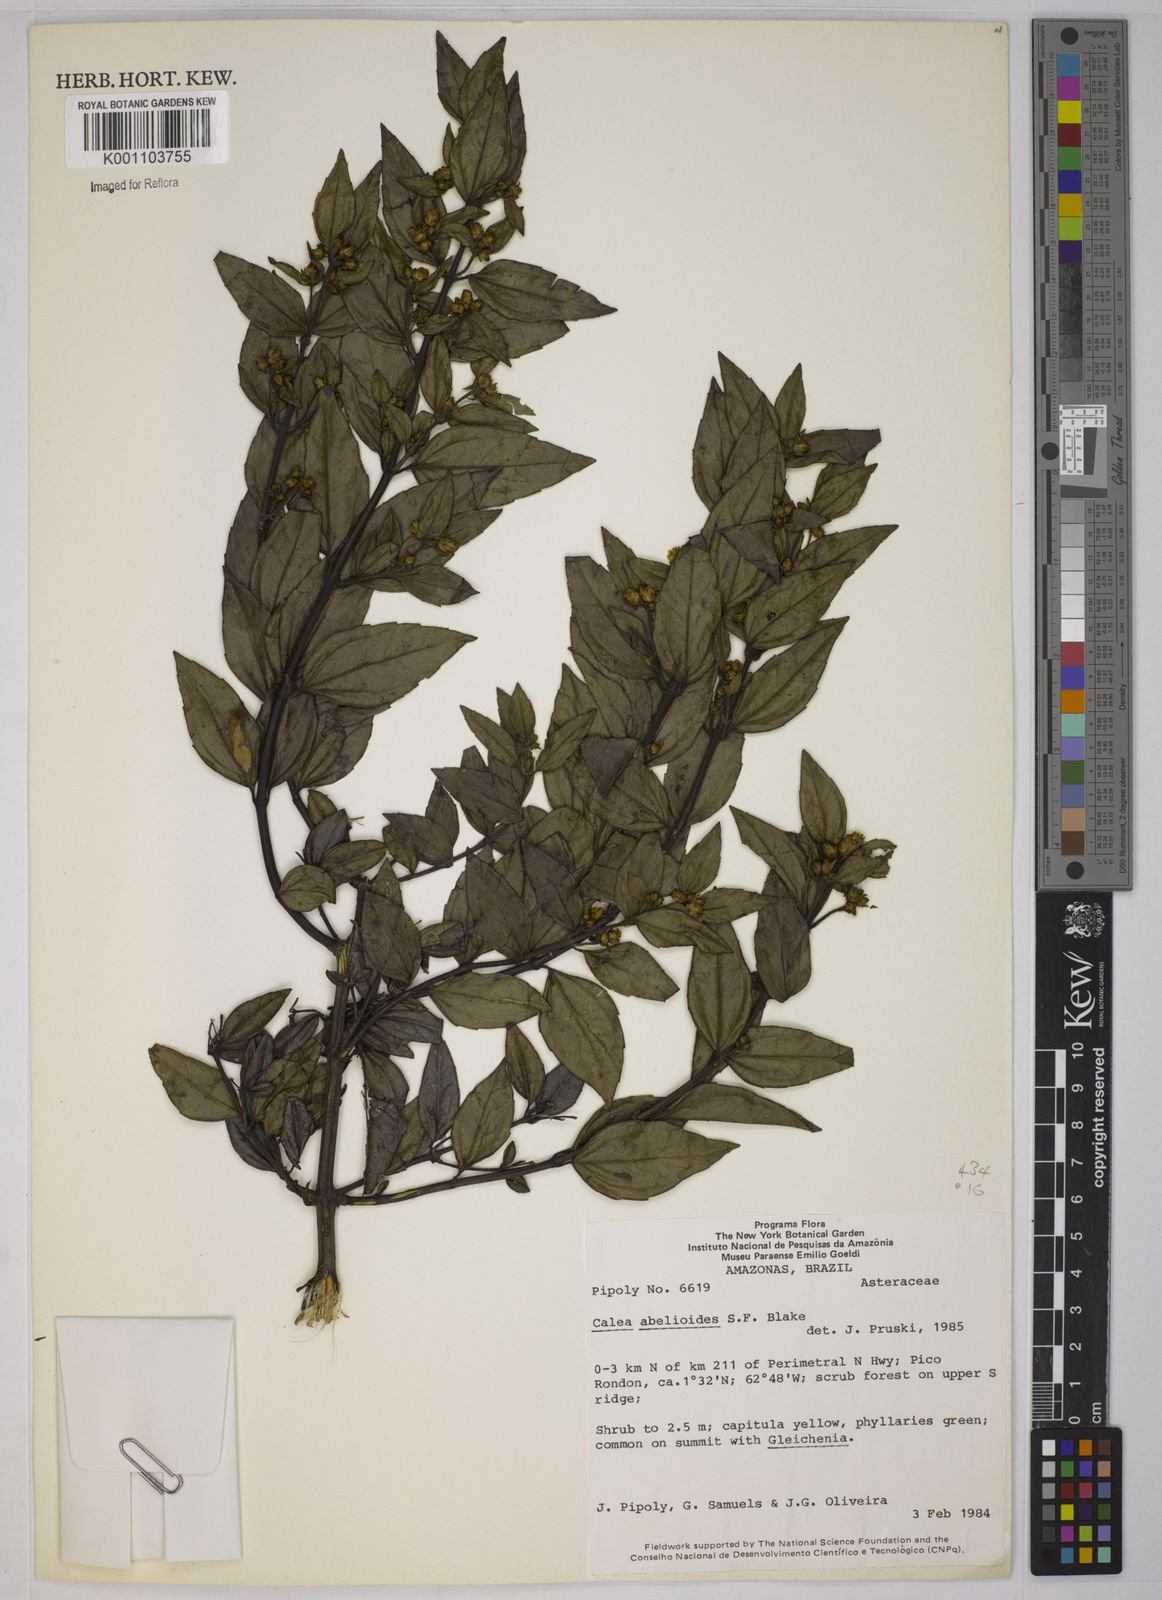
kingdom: Plantae
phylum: Tracheophyta
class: Magnoliopsida
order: Asterales
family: Asteraceae
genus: Calea
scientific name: Calea abelioides
